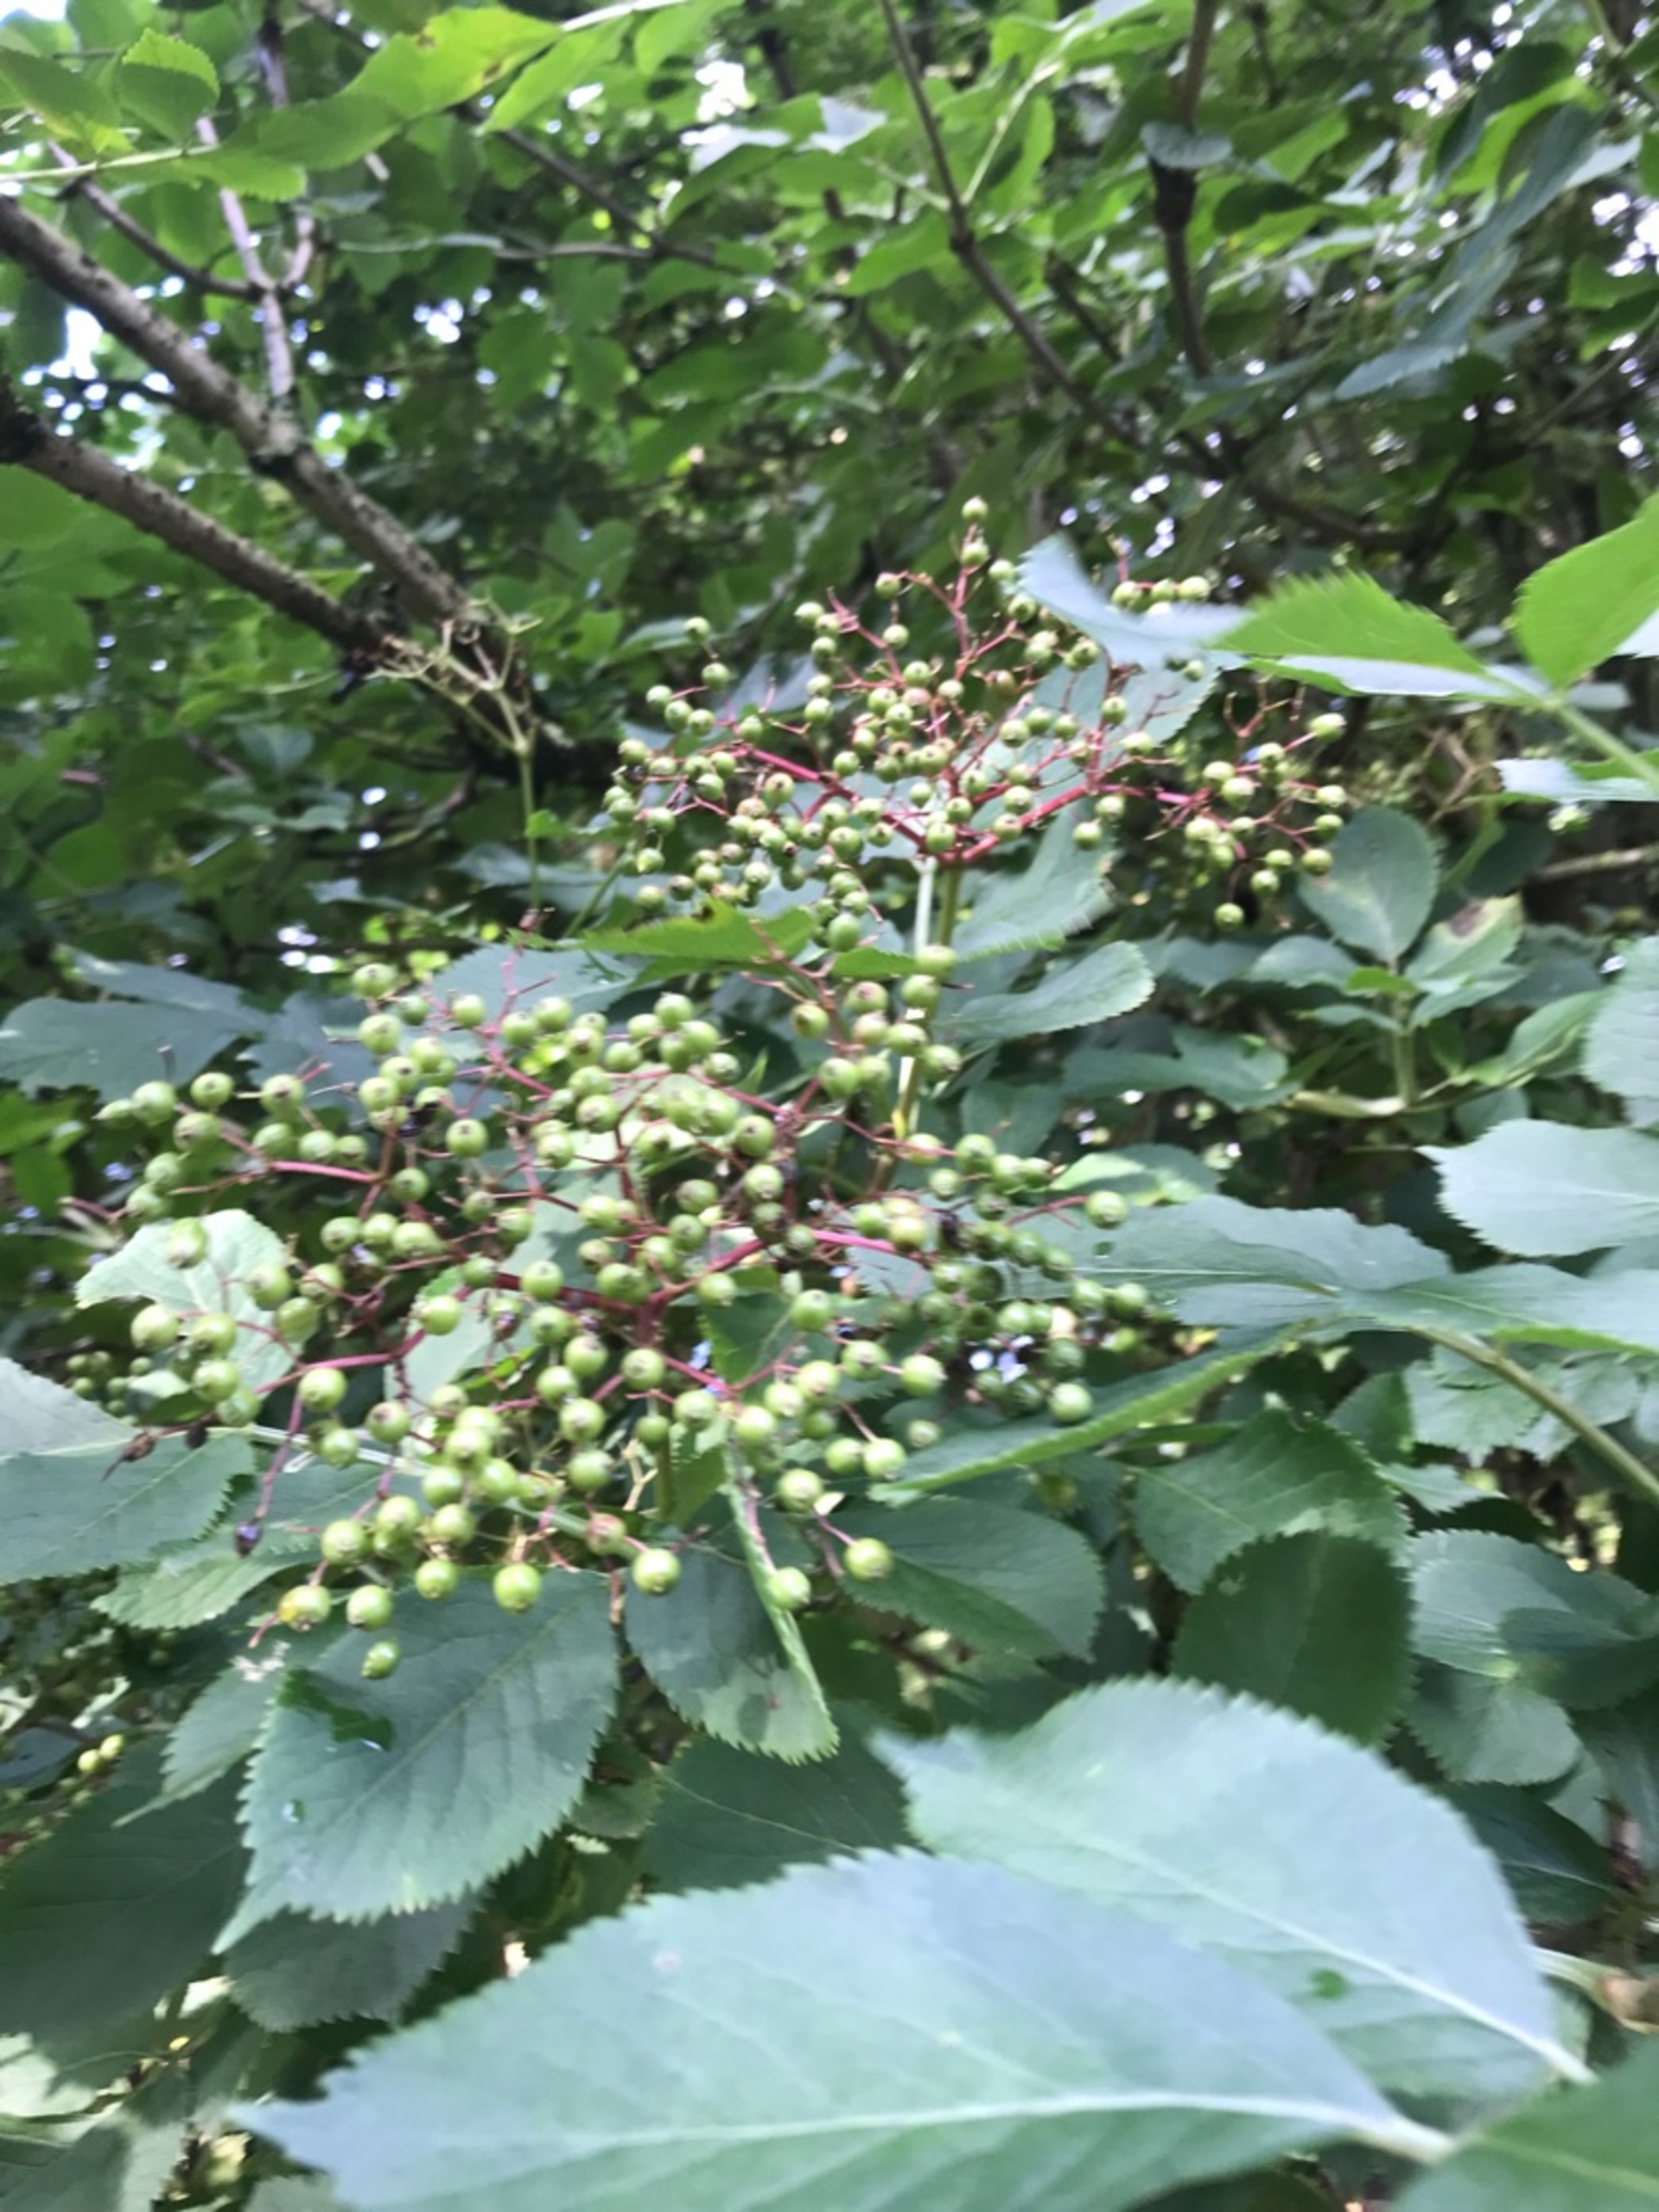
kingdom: Plantae
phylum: Tracheophyta
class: Magnoliopsida
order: Dipsacales
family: Viburnaceae
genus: Sambucus
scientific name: Sambucus nigra
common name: Almindelig hyld
